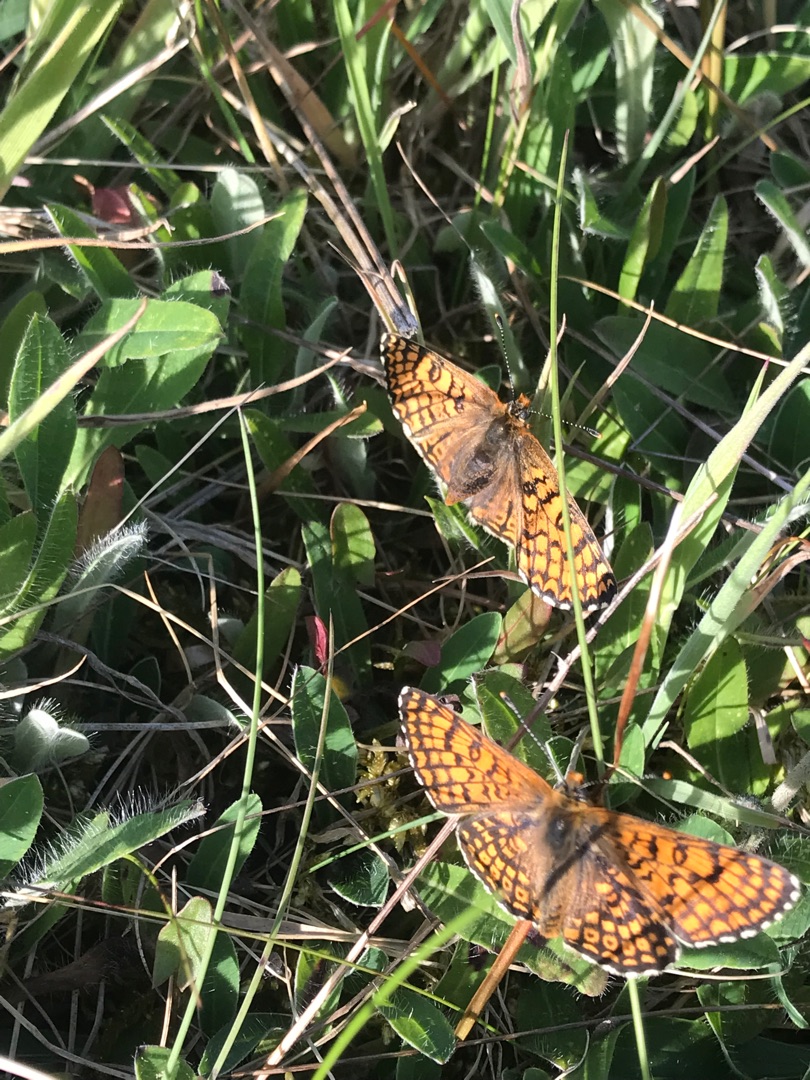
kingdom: Animalia
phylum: Arthropoda
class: Insecta
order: Lepidoptera
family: Nymphalidae
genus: Melitaea
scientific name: Melitaea cinxia
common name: Okkergul pletvinge
